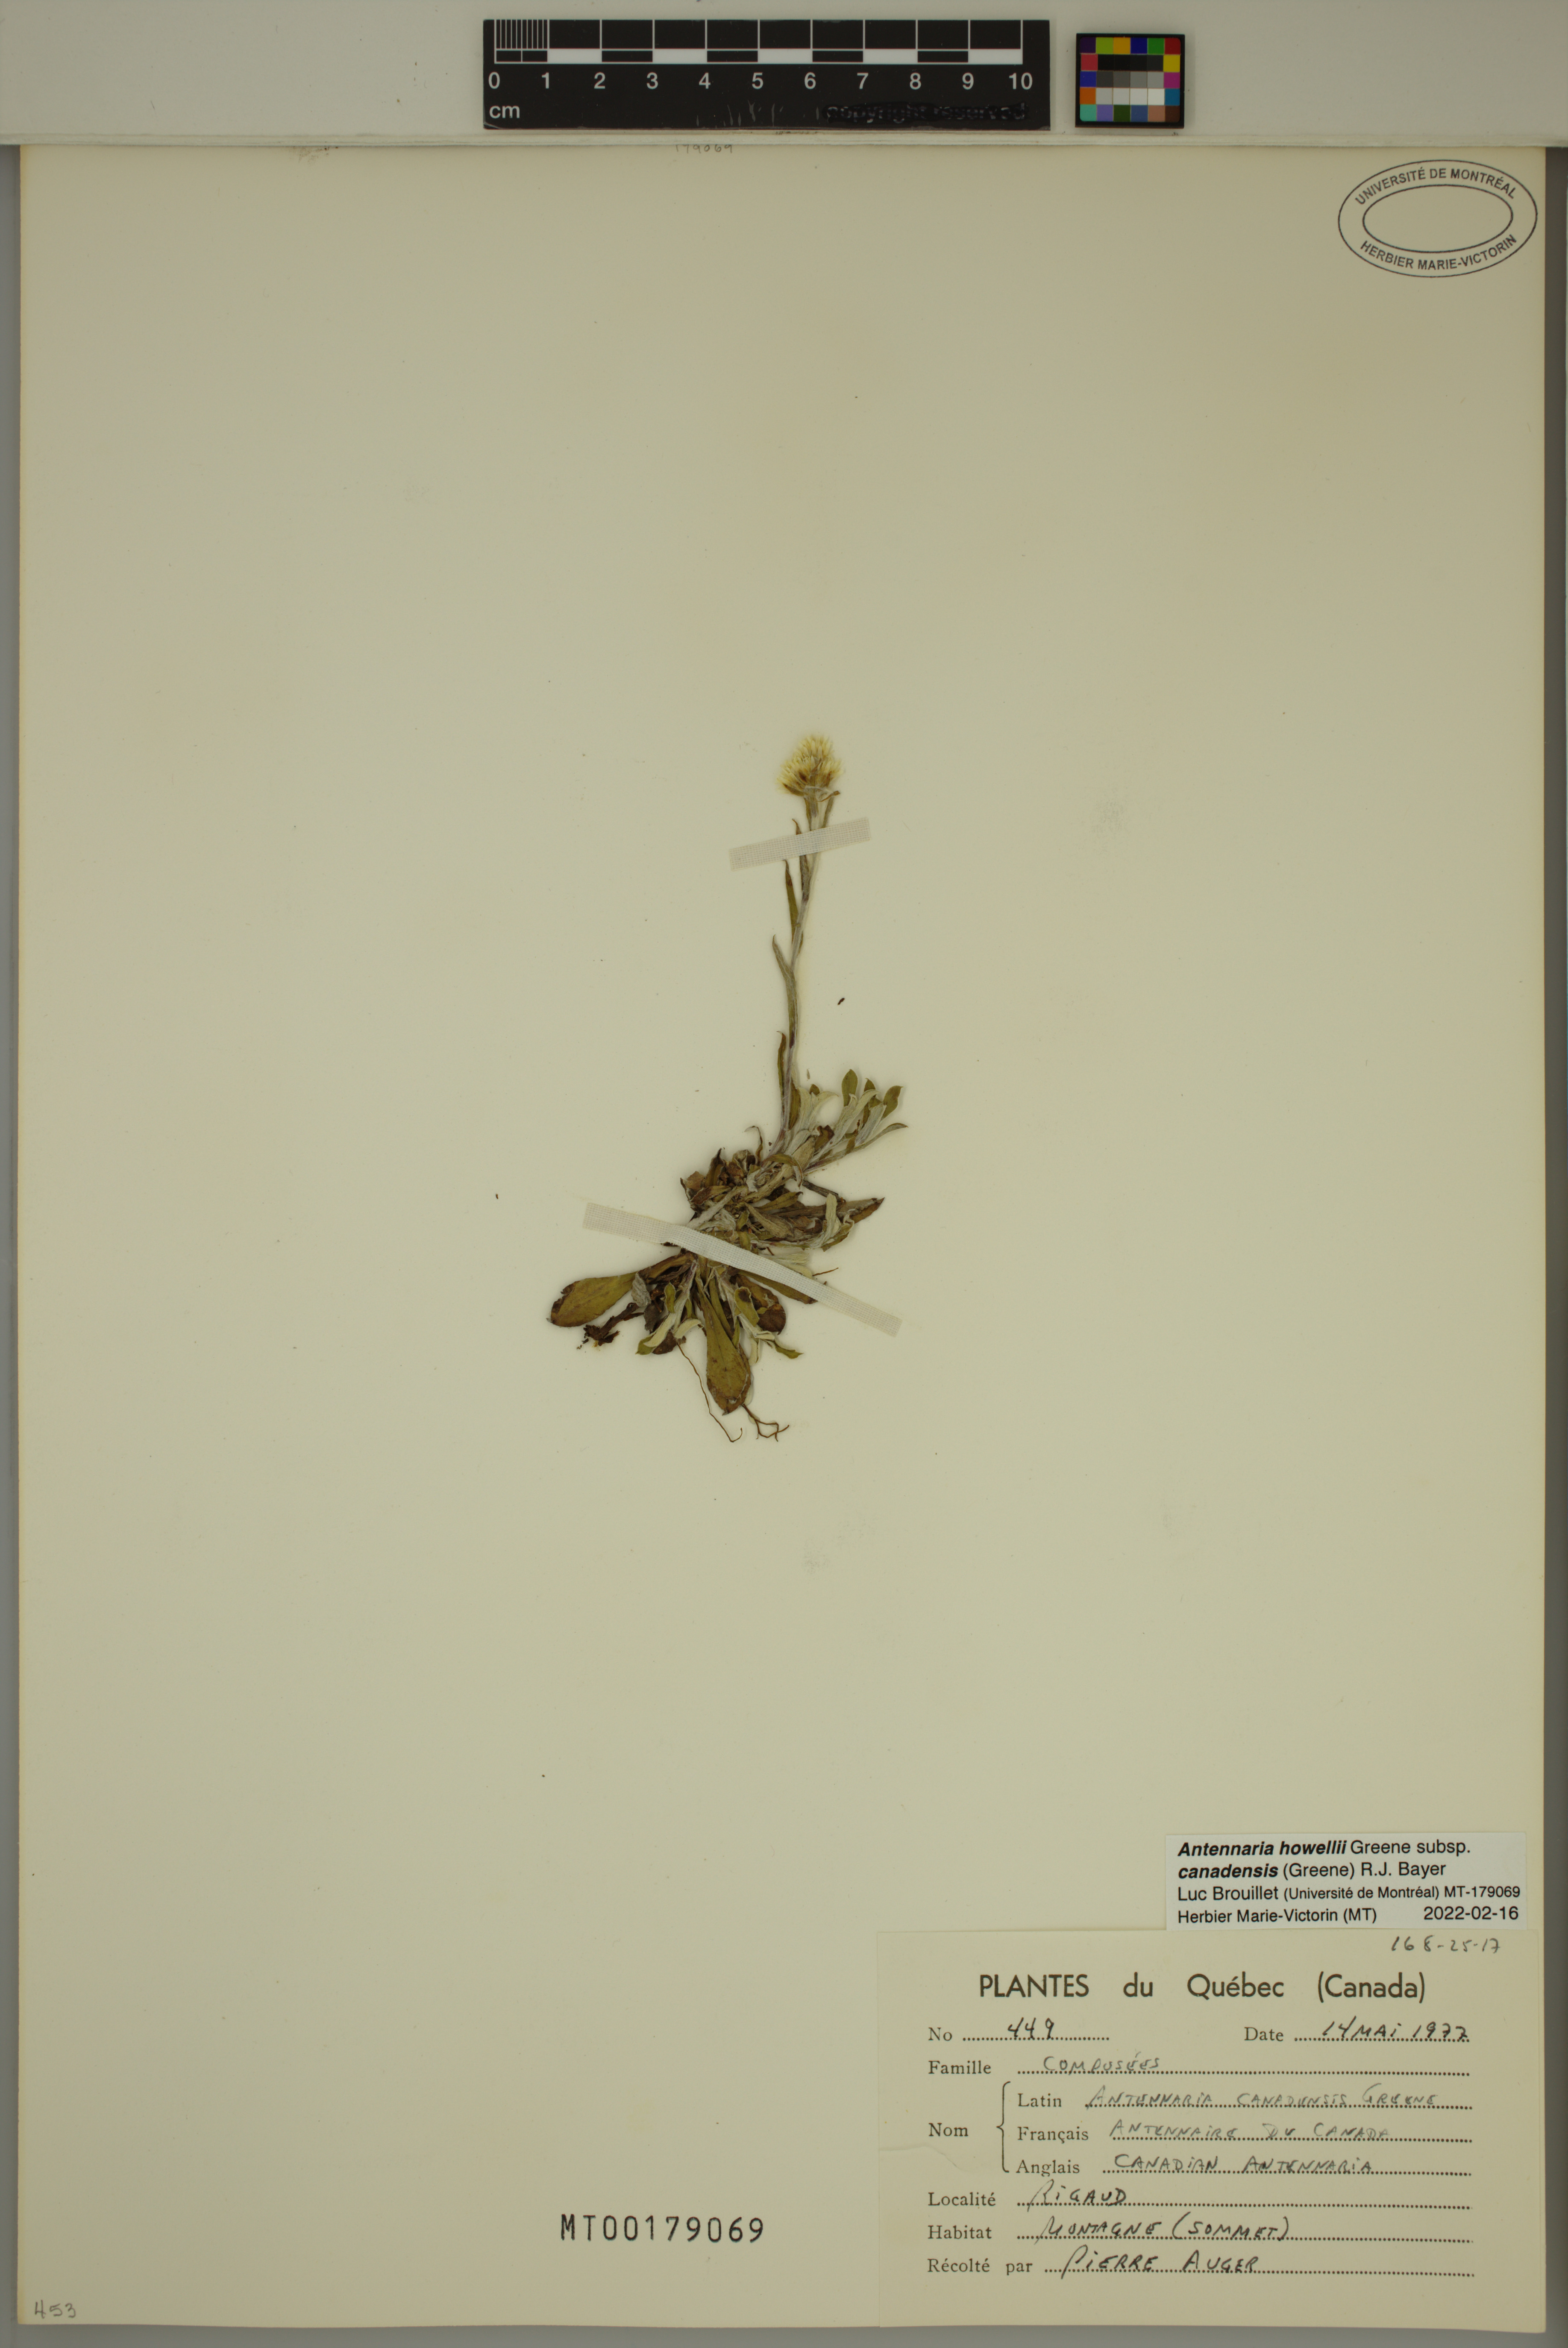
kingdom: Plantae
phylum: Tracheophyta
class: Magnoliopsida
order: Asterales
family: Asteraceae
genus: Antennaria
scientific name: Antennaria howellii
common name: Howell's pussytoes
